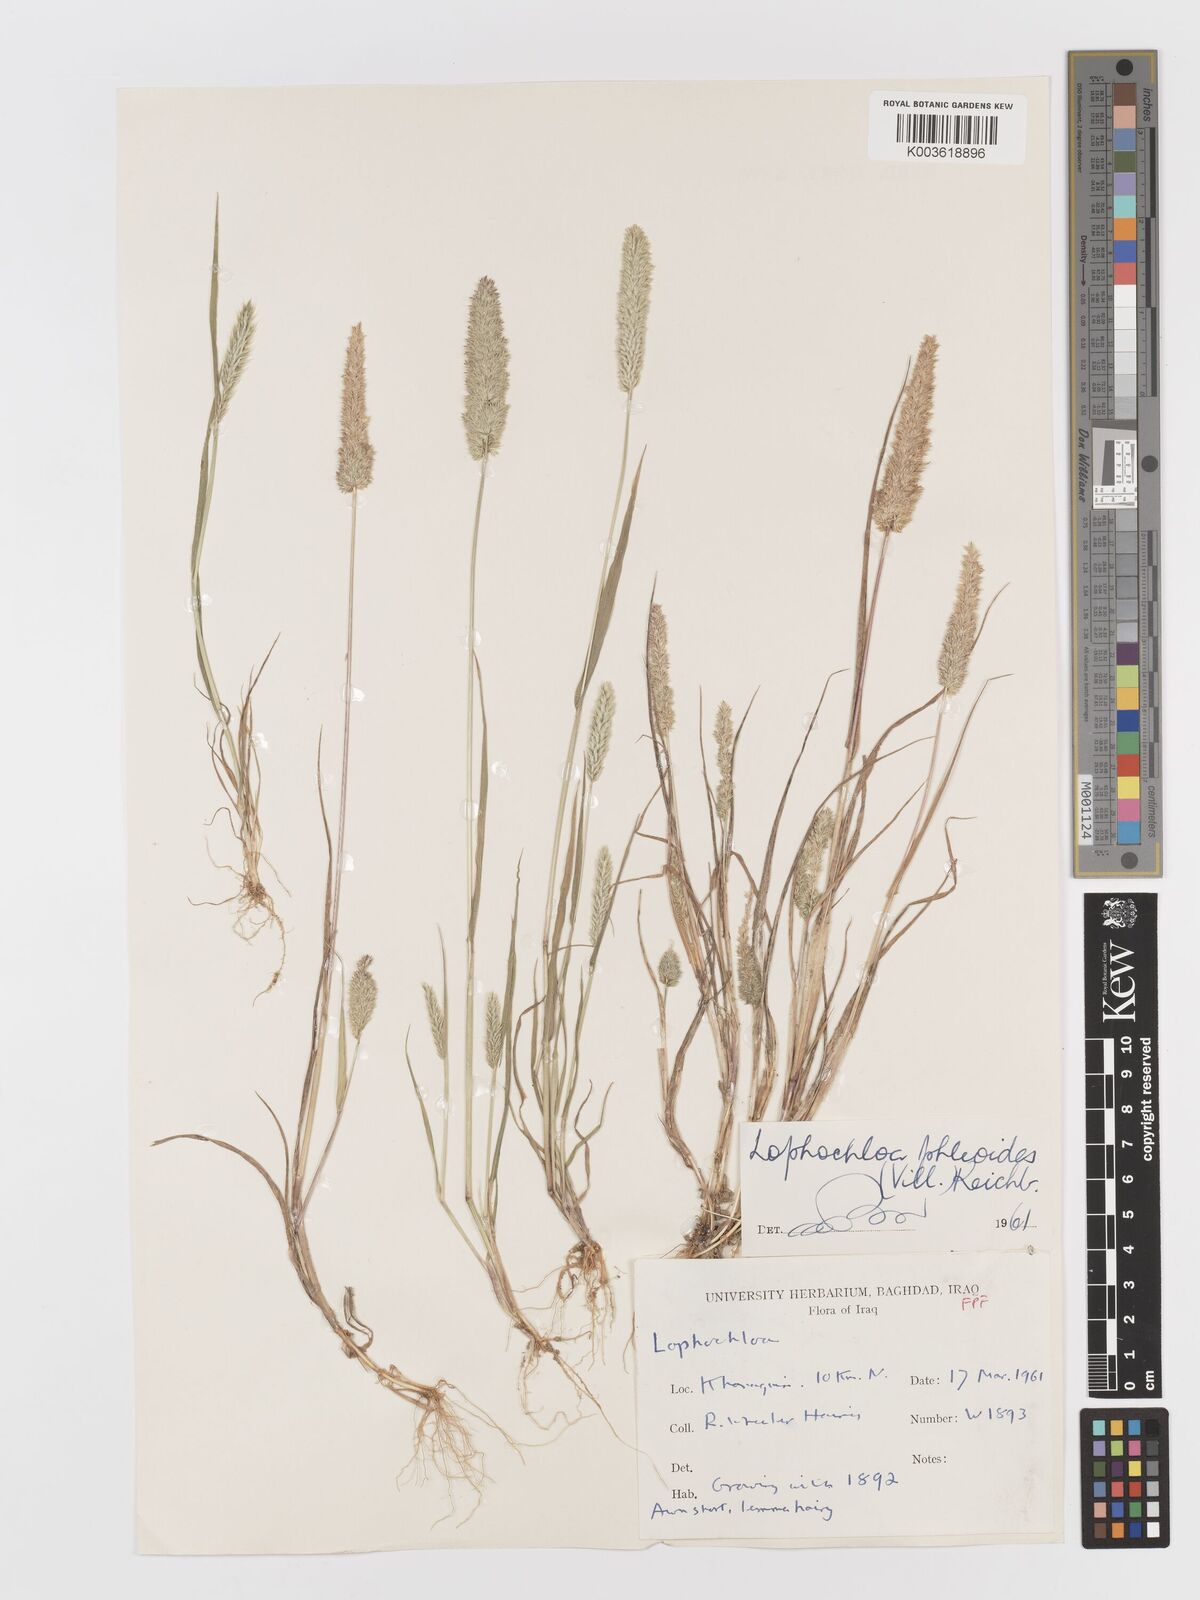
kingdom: Plantae
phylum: Tracheophyta
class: Liliopsida
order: Poales
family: Poaceae
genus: Rostraria
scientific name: Rostraria cristata
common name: Mediterranean hair-grass
